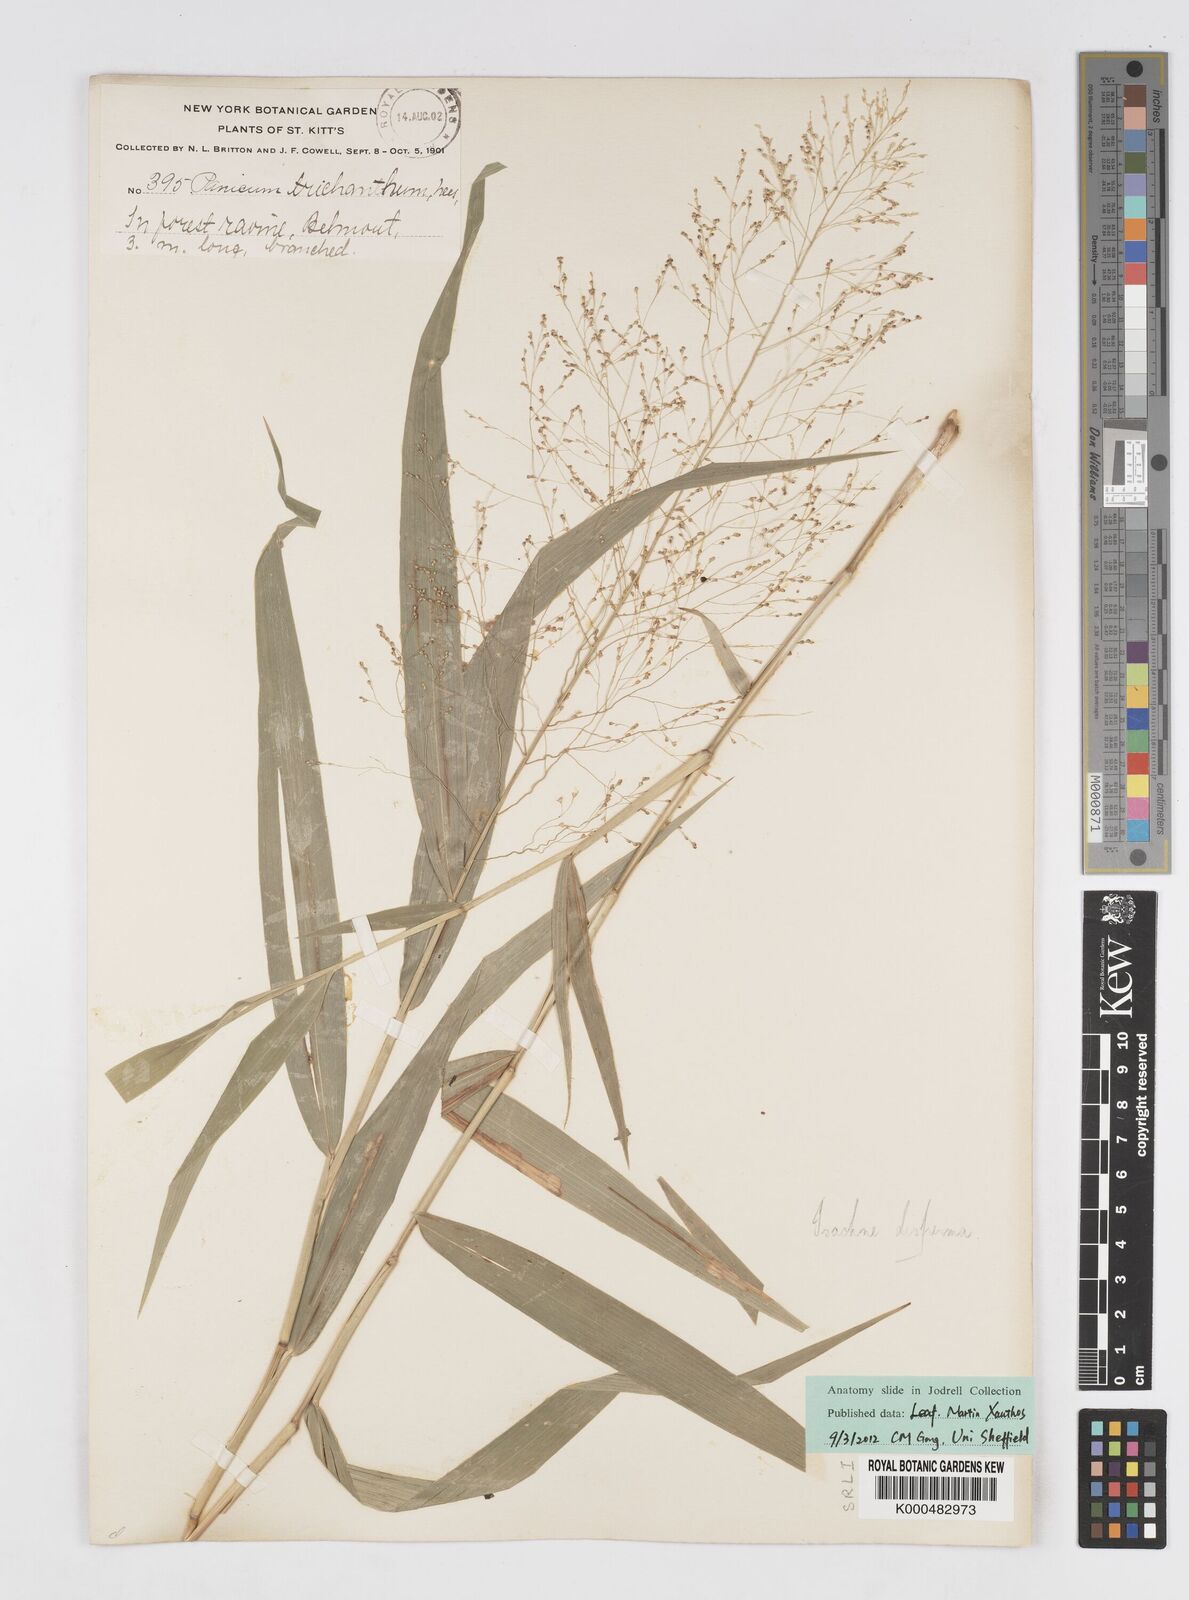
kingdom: Plantae
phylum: Tracheophyta
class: Liliopsida
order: Poales
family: Poaceae
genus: Isachne
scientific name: Isachne
